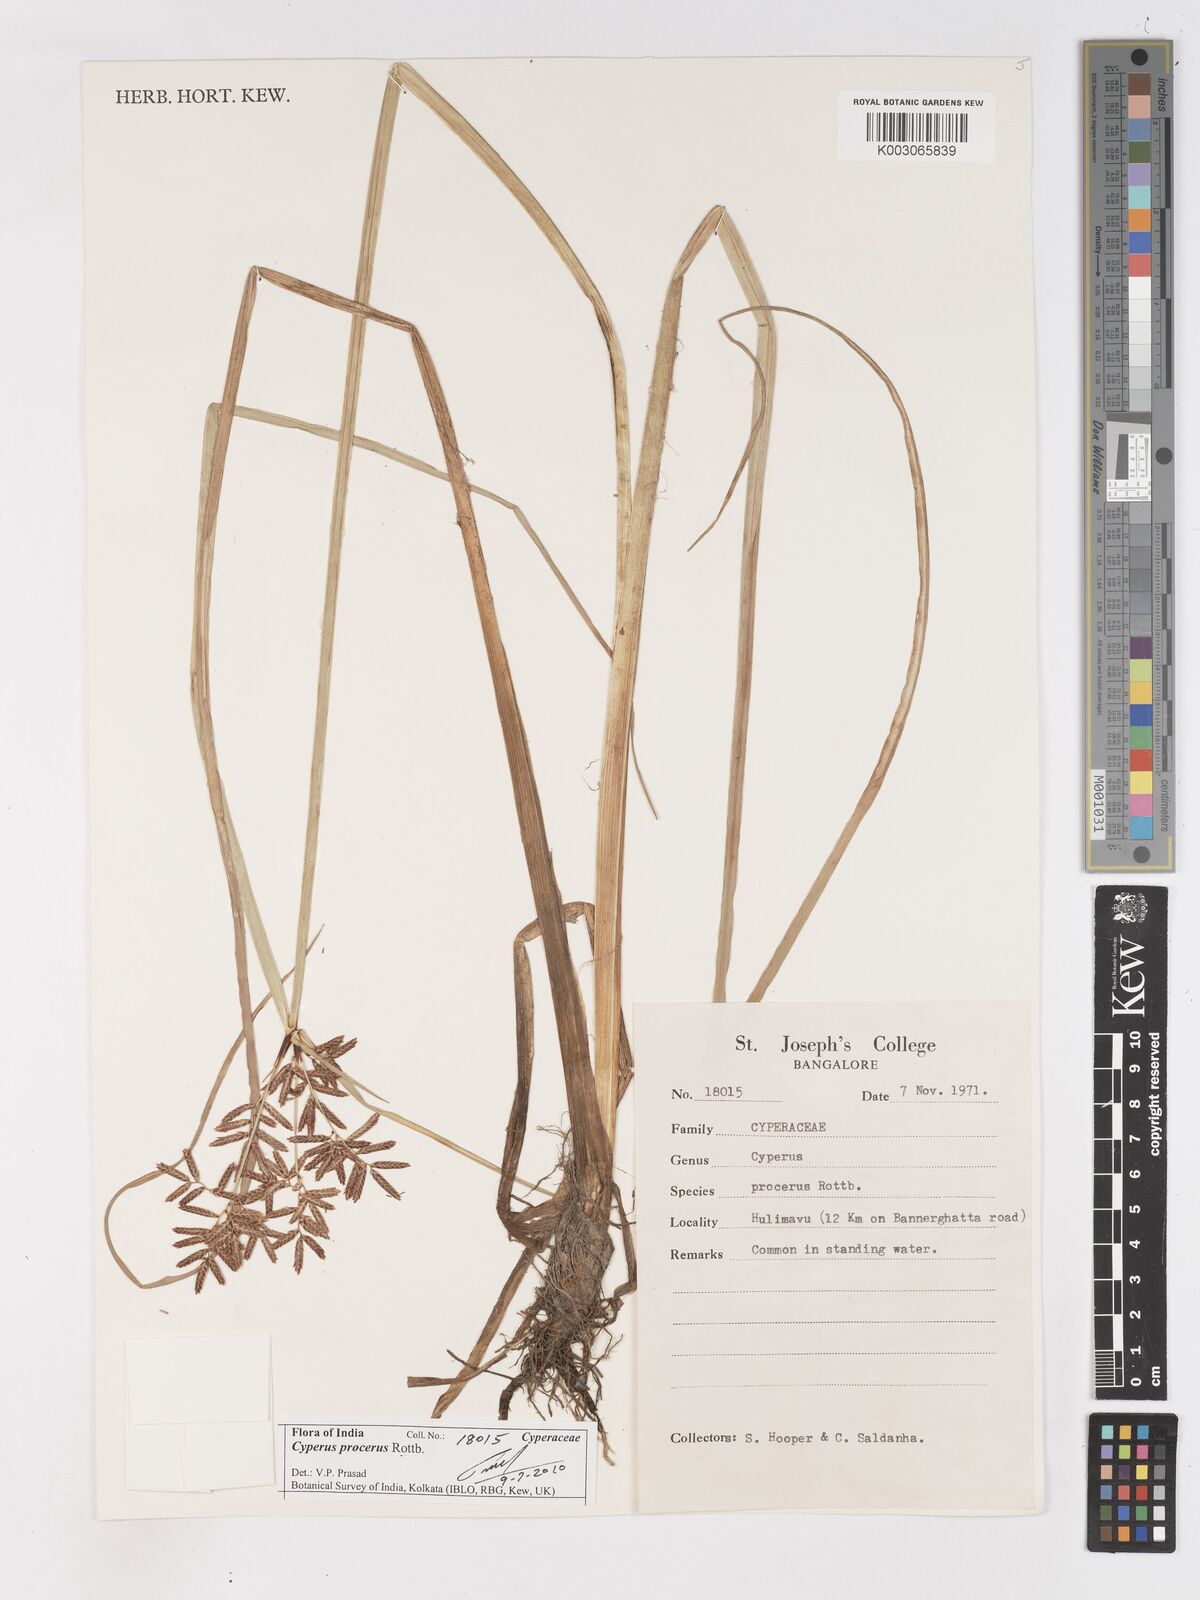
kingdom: Plantae
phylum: Tracheophyta
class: Liliopsida
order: Poales
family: Cyperaceae
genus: Cyperus
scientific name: Cyperus procerus
